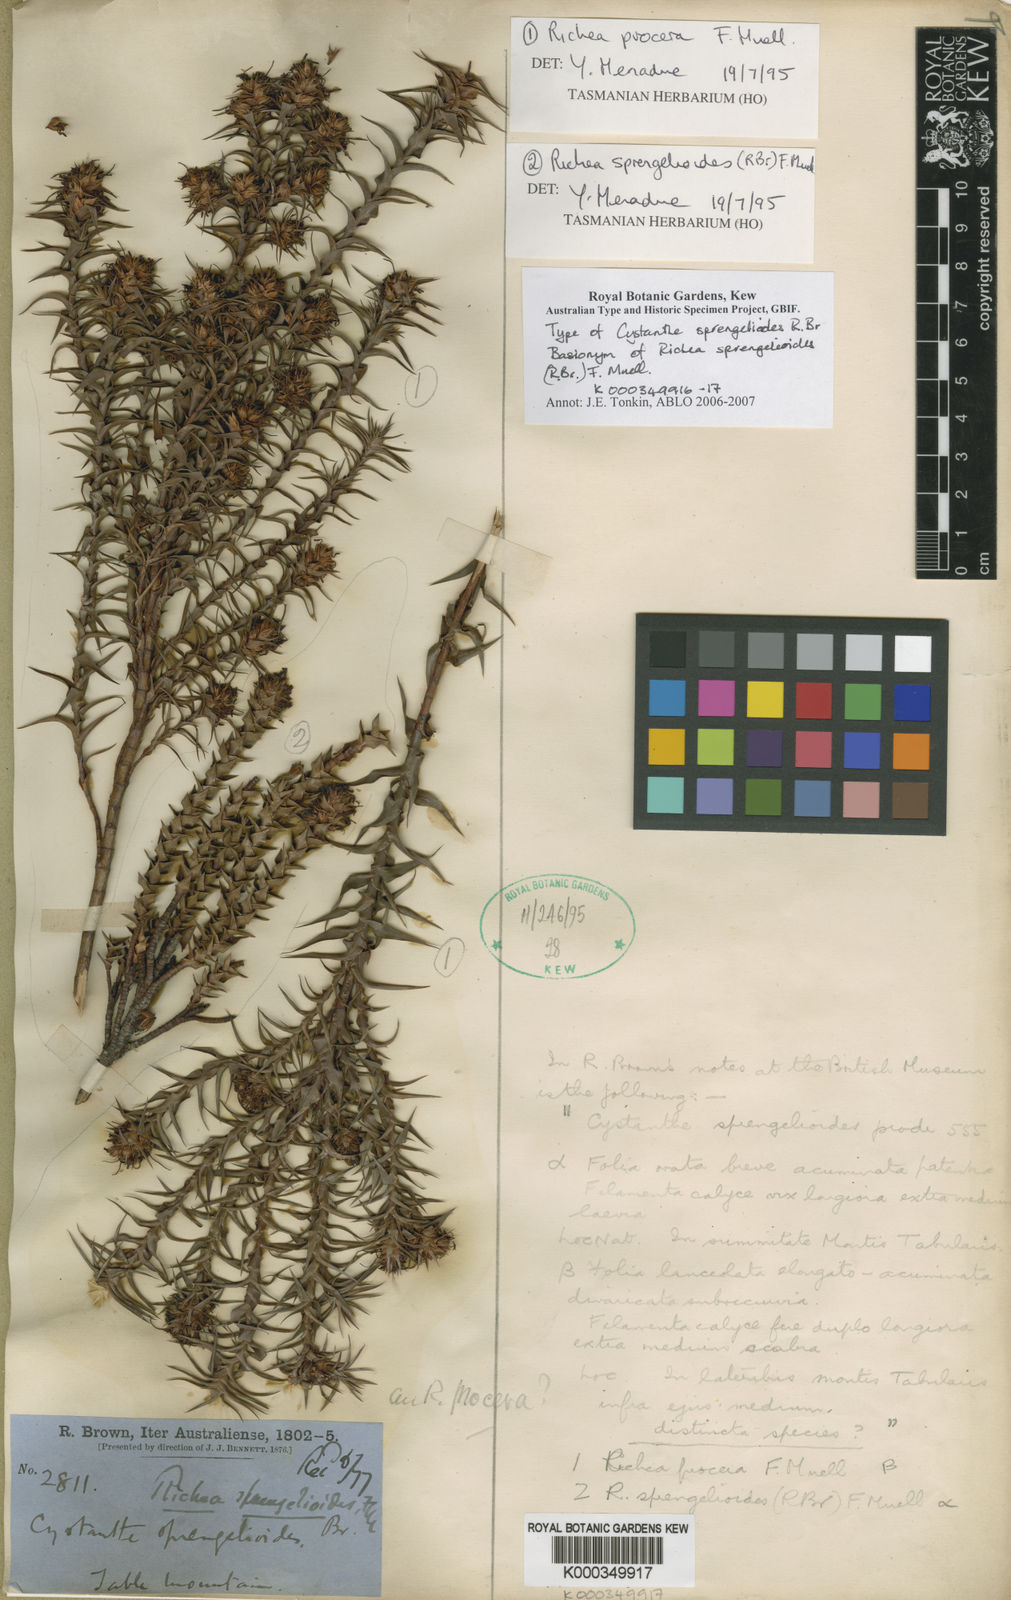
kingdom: Plantae
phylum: Tracheophyta
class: Magnoliopsida
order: Ericales
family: Ericaceae
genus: Dracophyllum
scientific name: Dracophyllum sprengelioides
